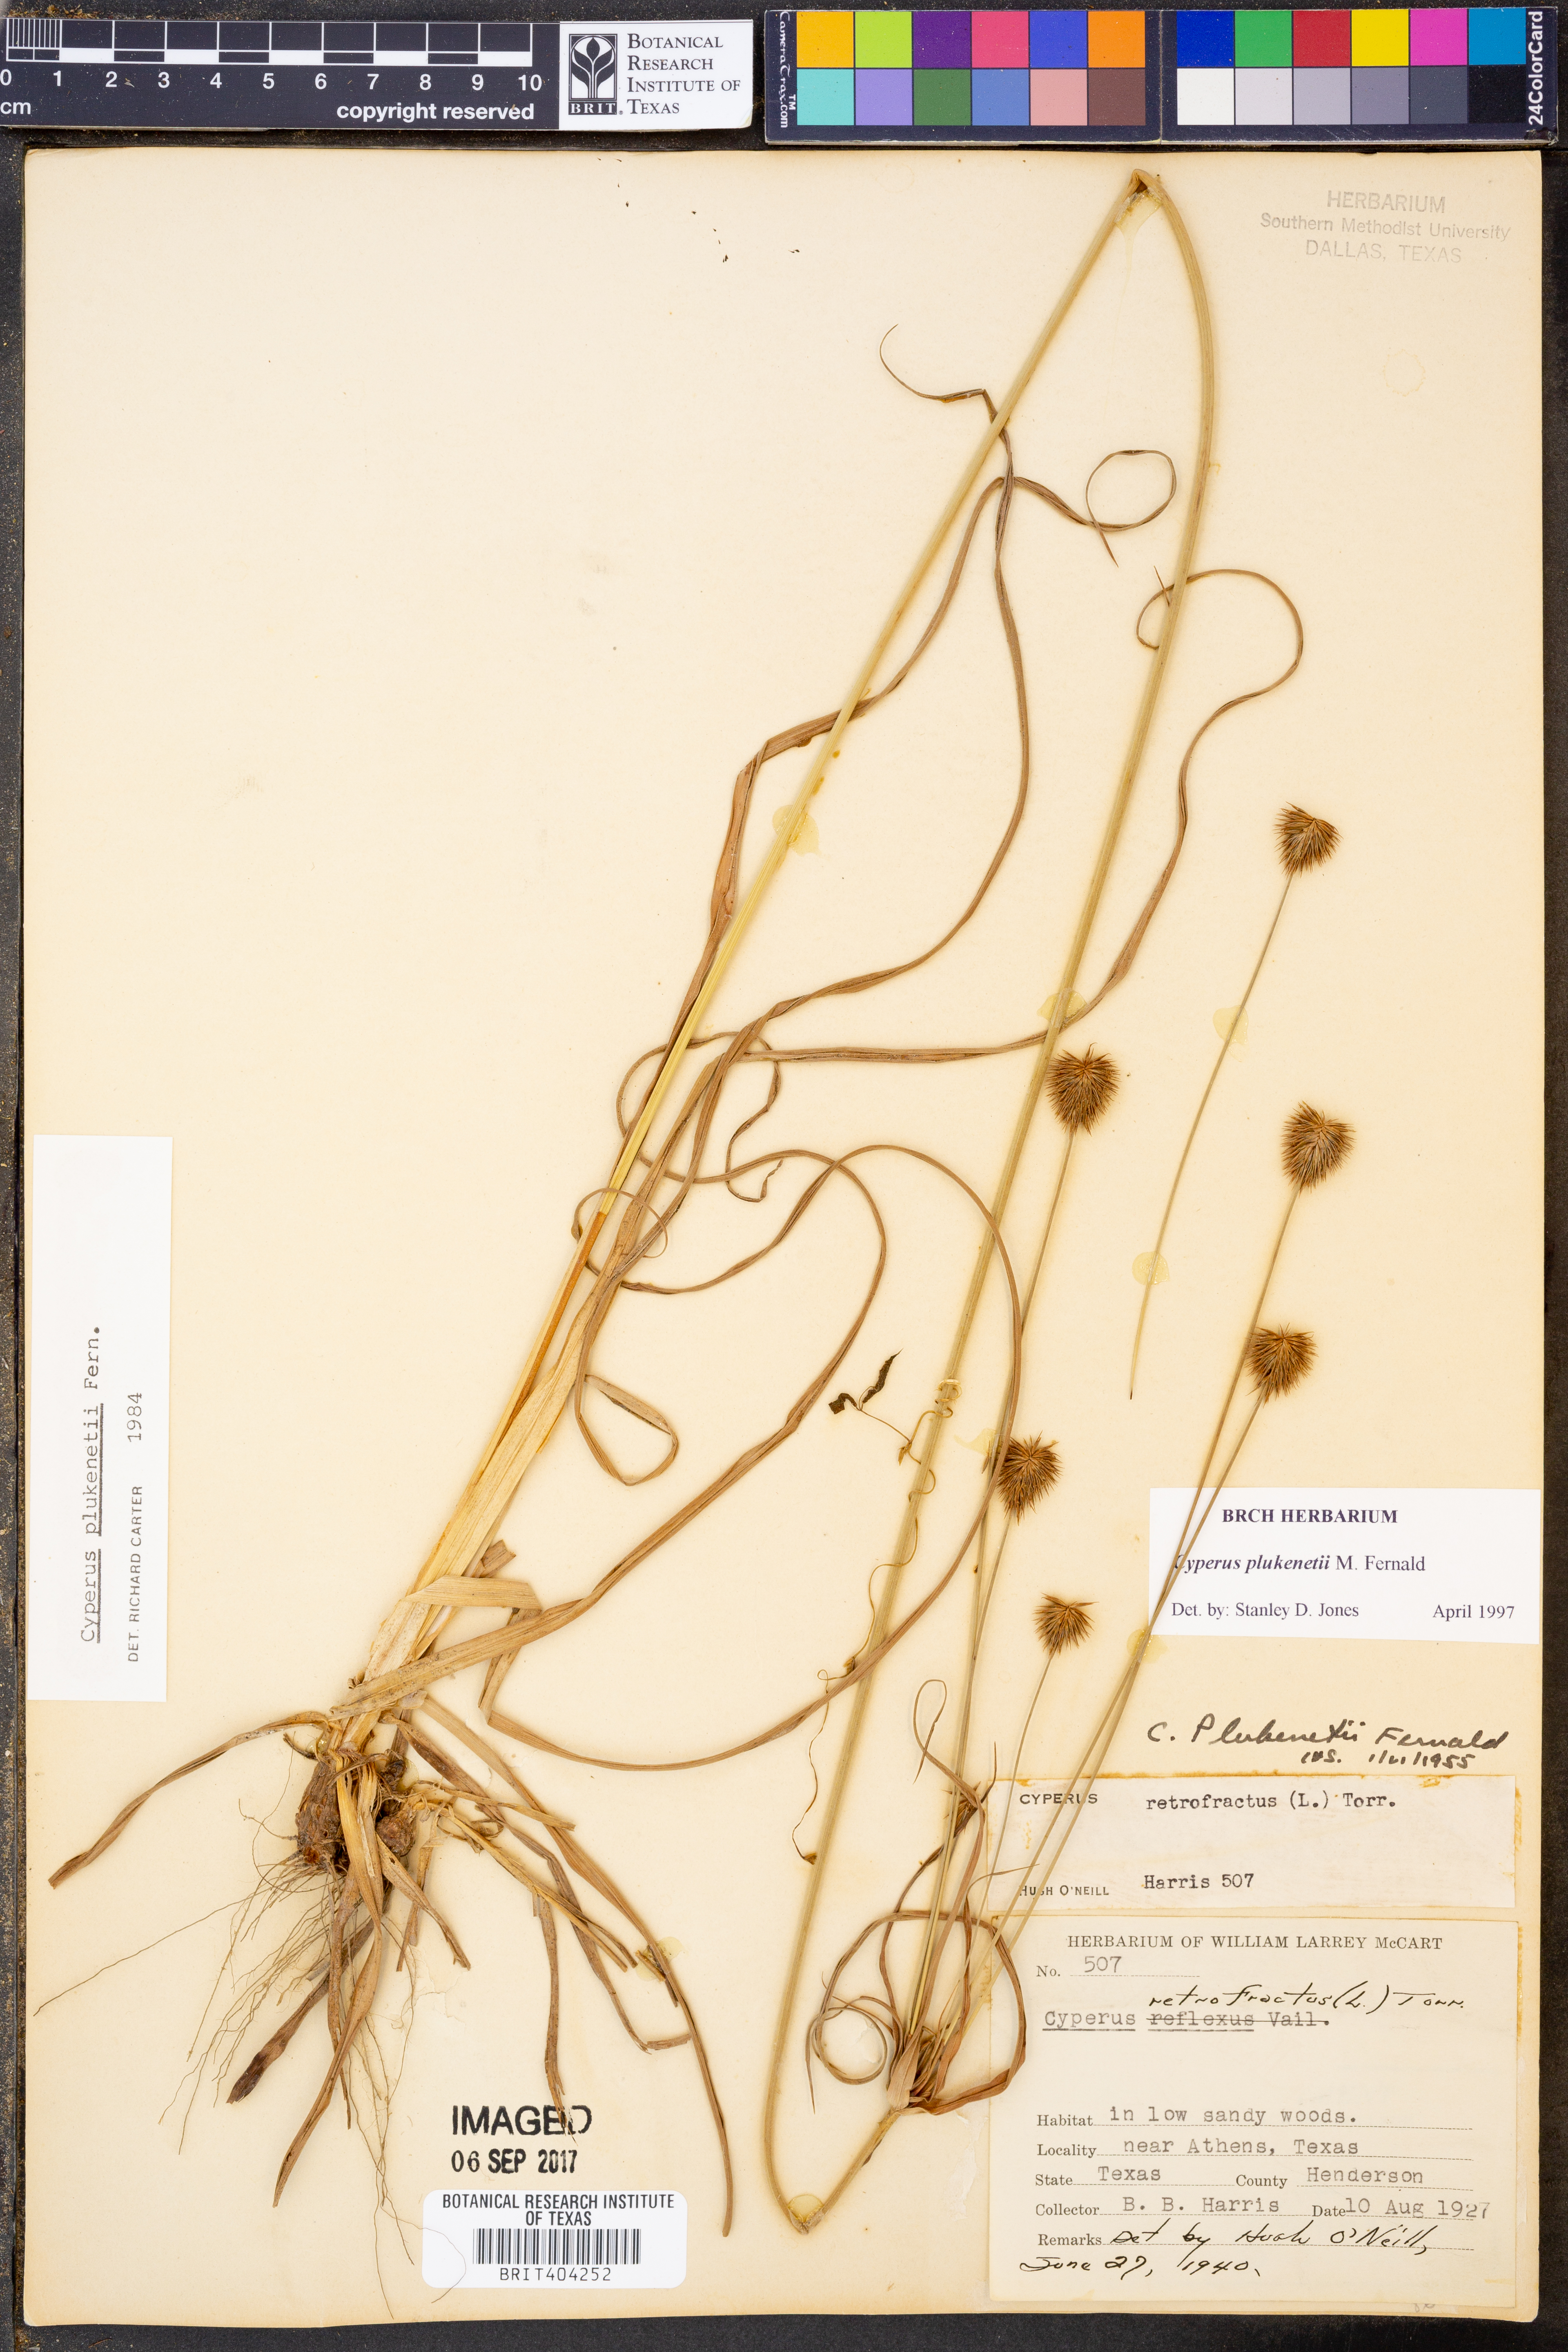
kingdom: Plantae
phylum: Tracheophyta
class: Liliopsida
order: Poales
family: Cyperaceae
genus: Cyperus
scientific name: Cyperus plukenetii
